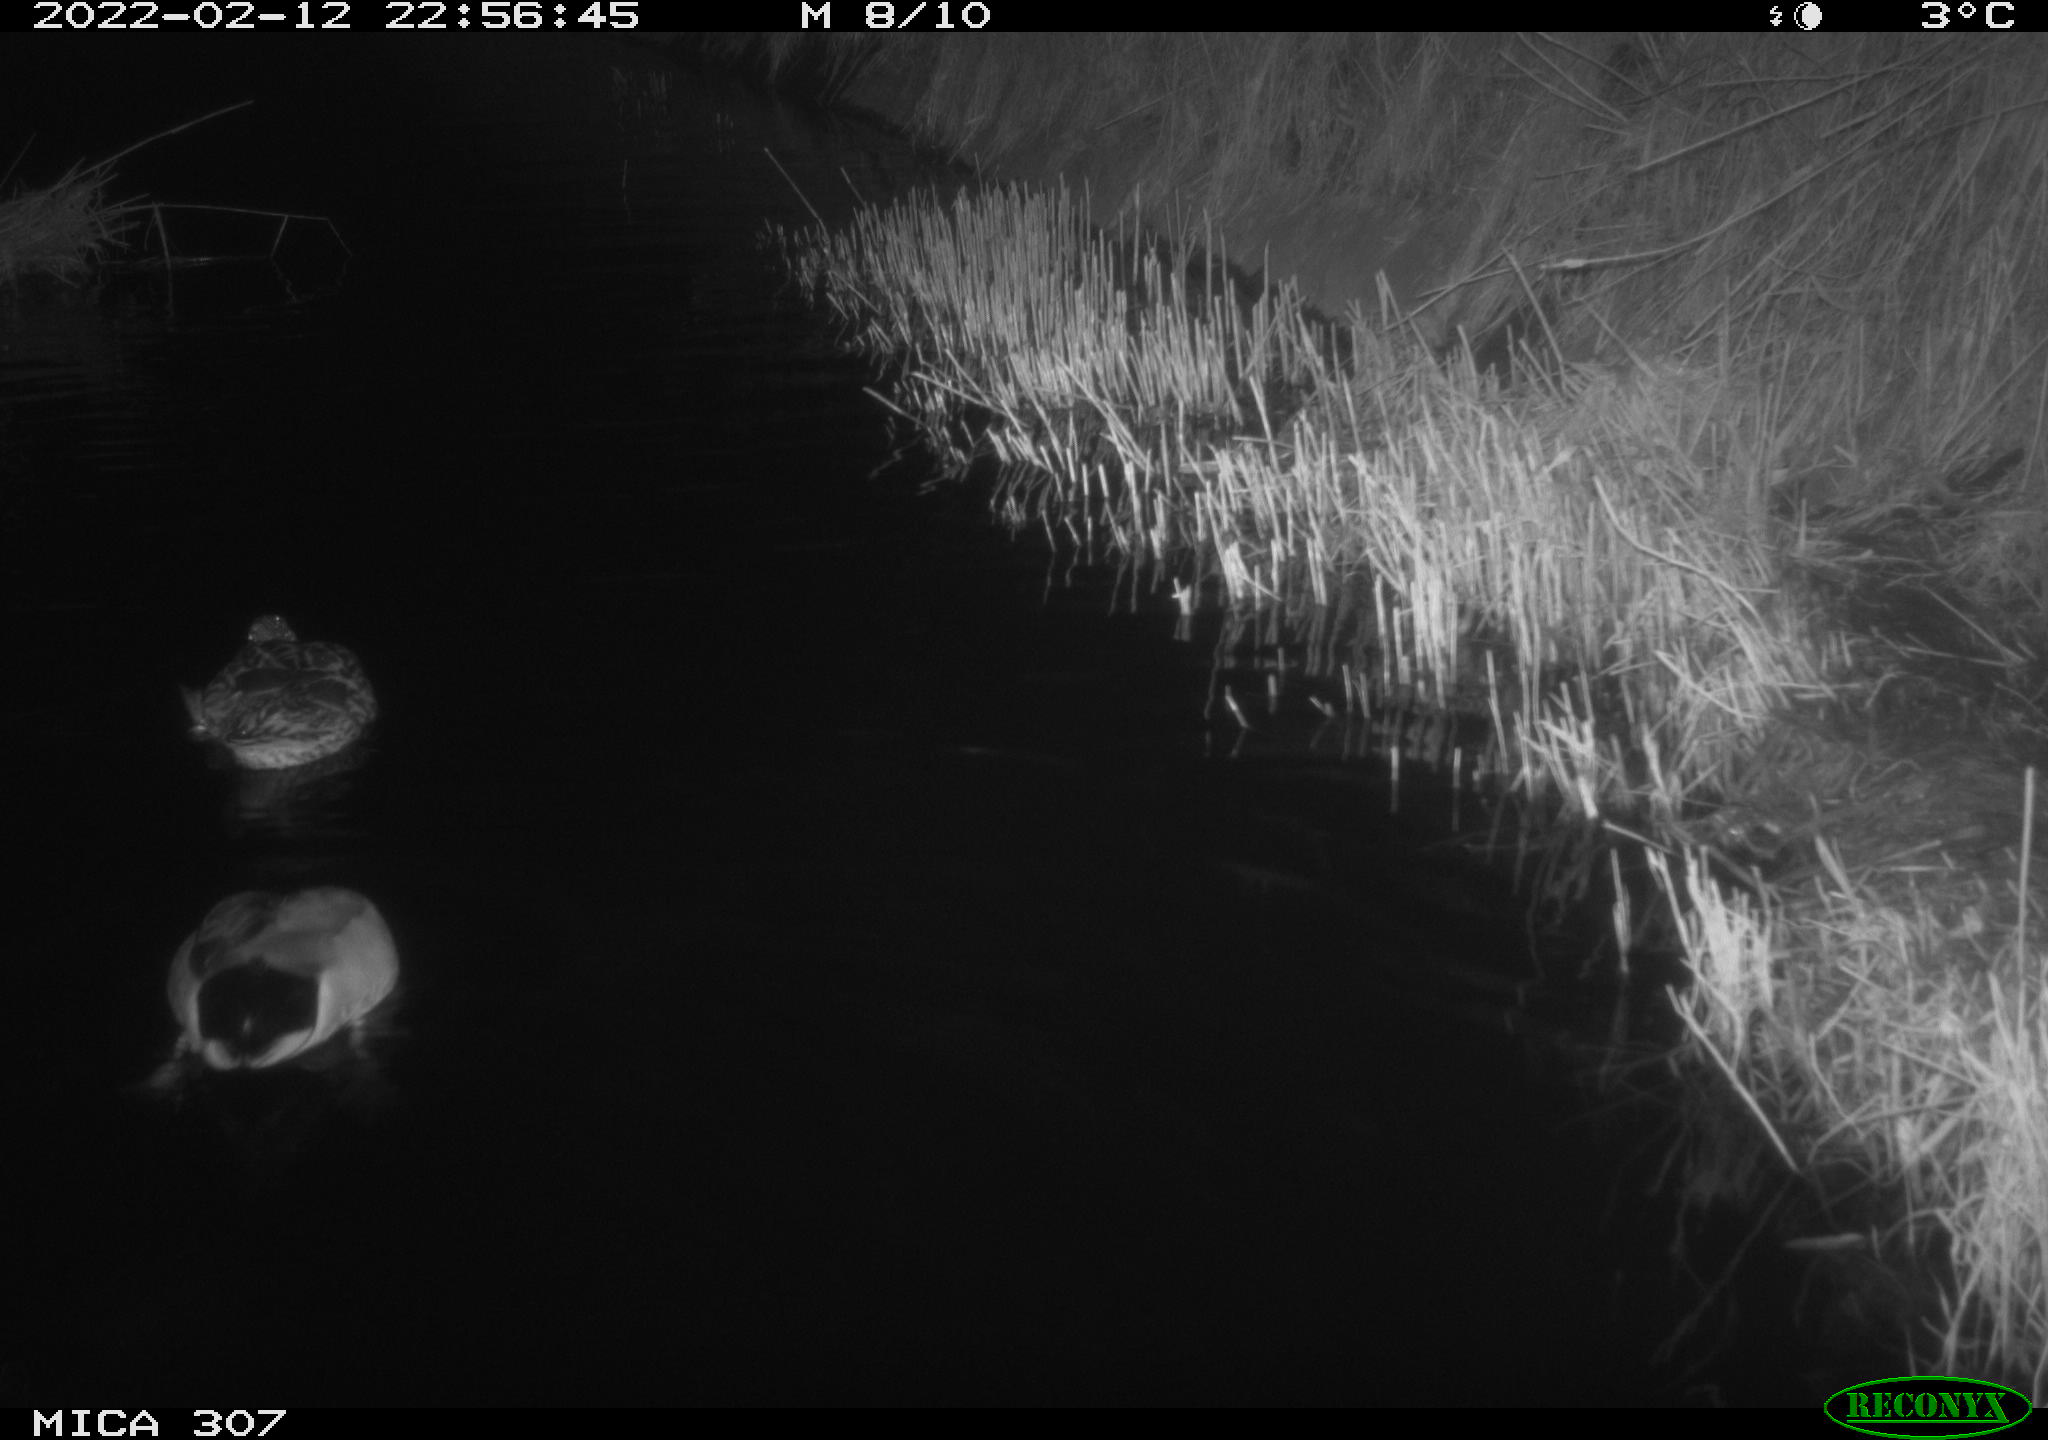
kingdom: Animalia
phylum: Chordata
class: Aves
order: Anseriformes
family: Anatidae
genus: Anas
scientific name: Anas platyrhynchos
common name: Mallard
